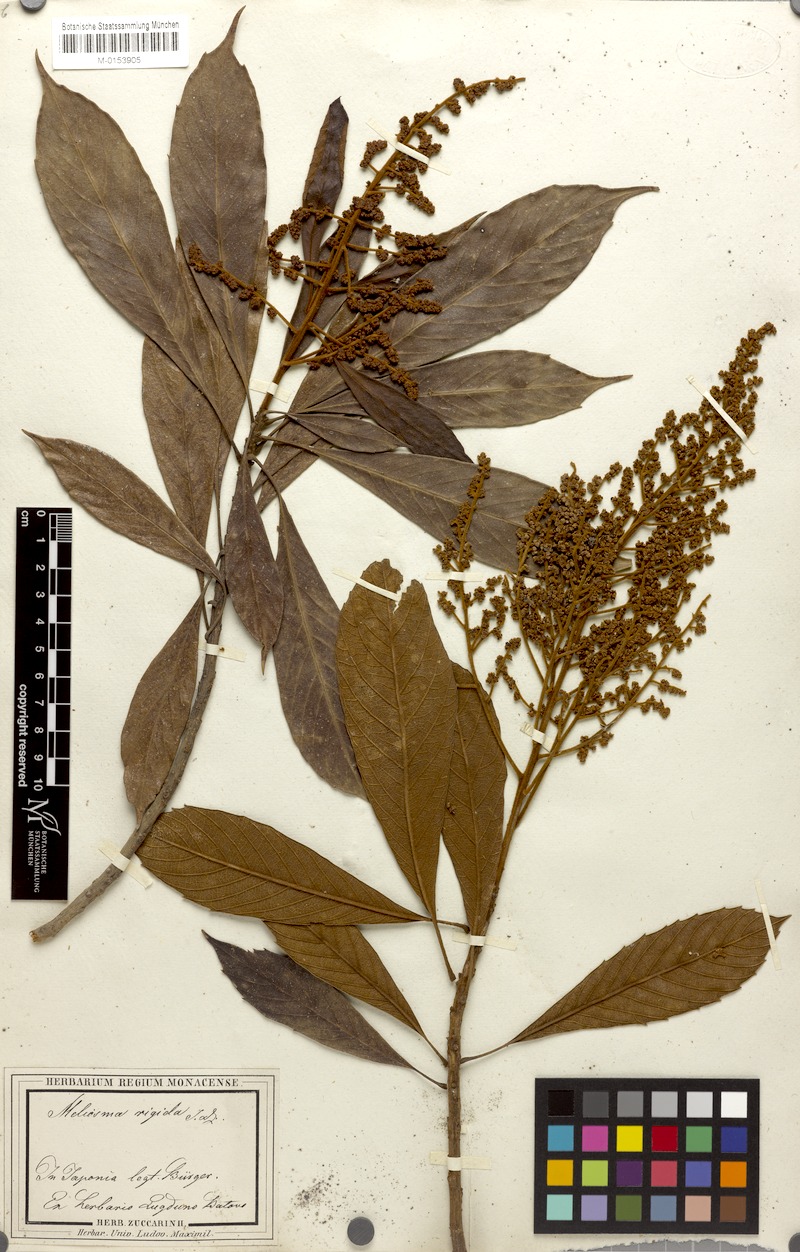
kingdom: Plantae
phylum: Tracheophyta
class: Magnoliopsida
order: Proteales
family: Sabiaceae
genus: Meliosma
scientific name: Meliosma rigida
